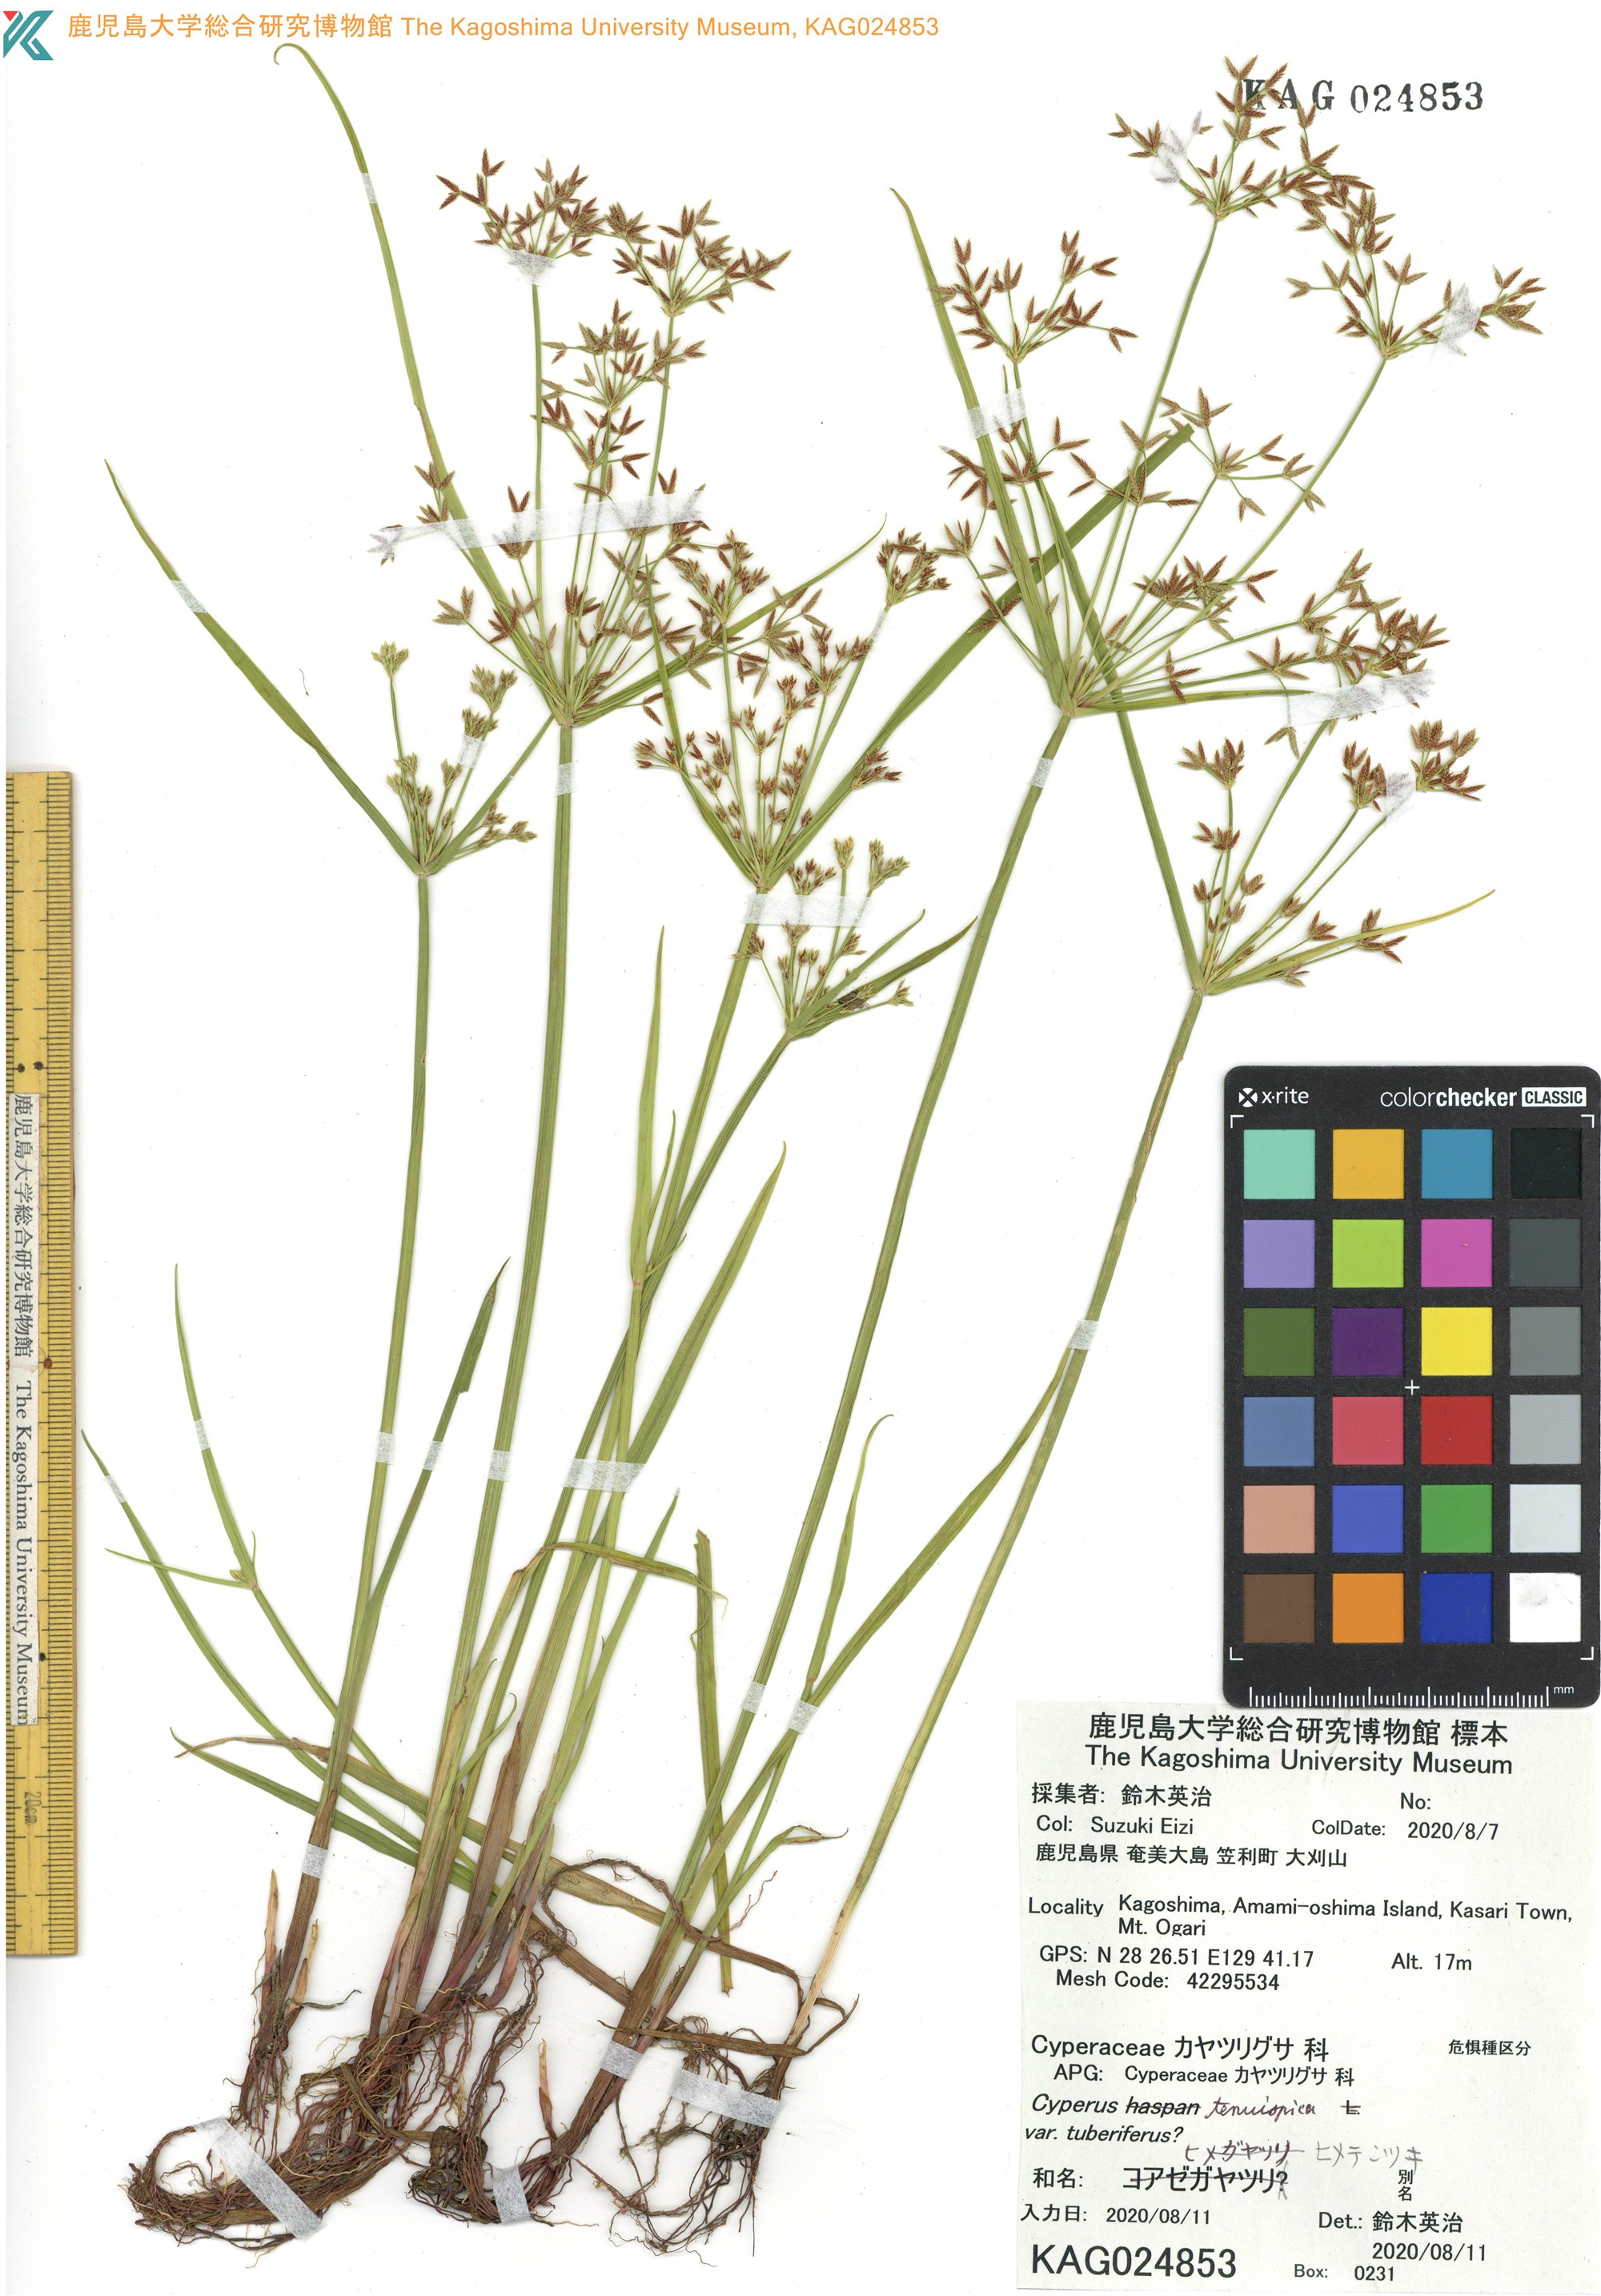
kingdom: Plantae
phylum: Tracheophyta
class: Liliopsida
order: Poales
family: Cyperaceae
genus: Cyperus
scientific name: Cyperus tenuispica
